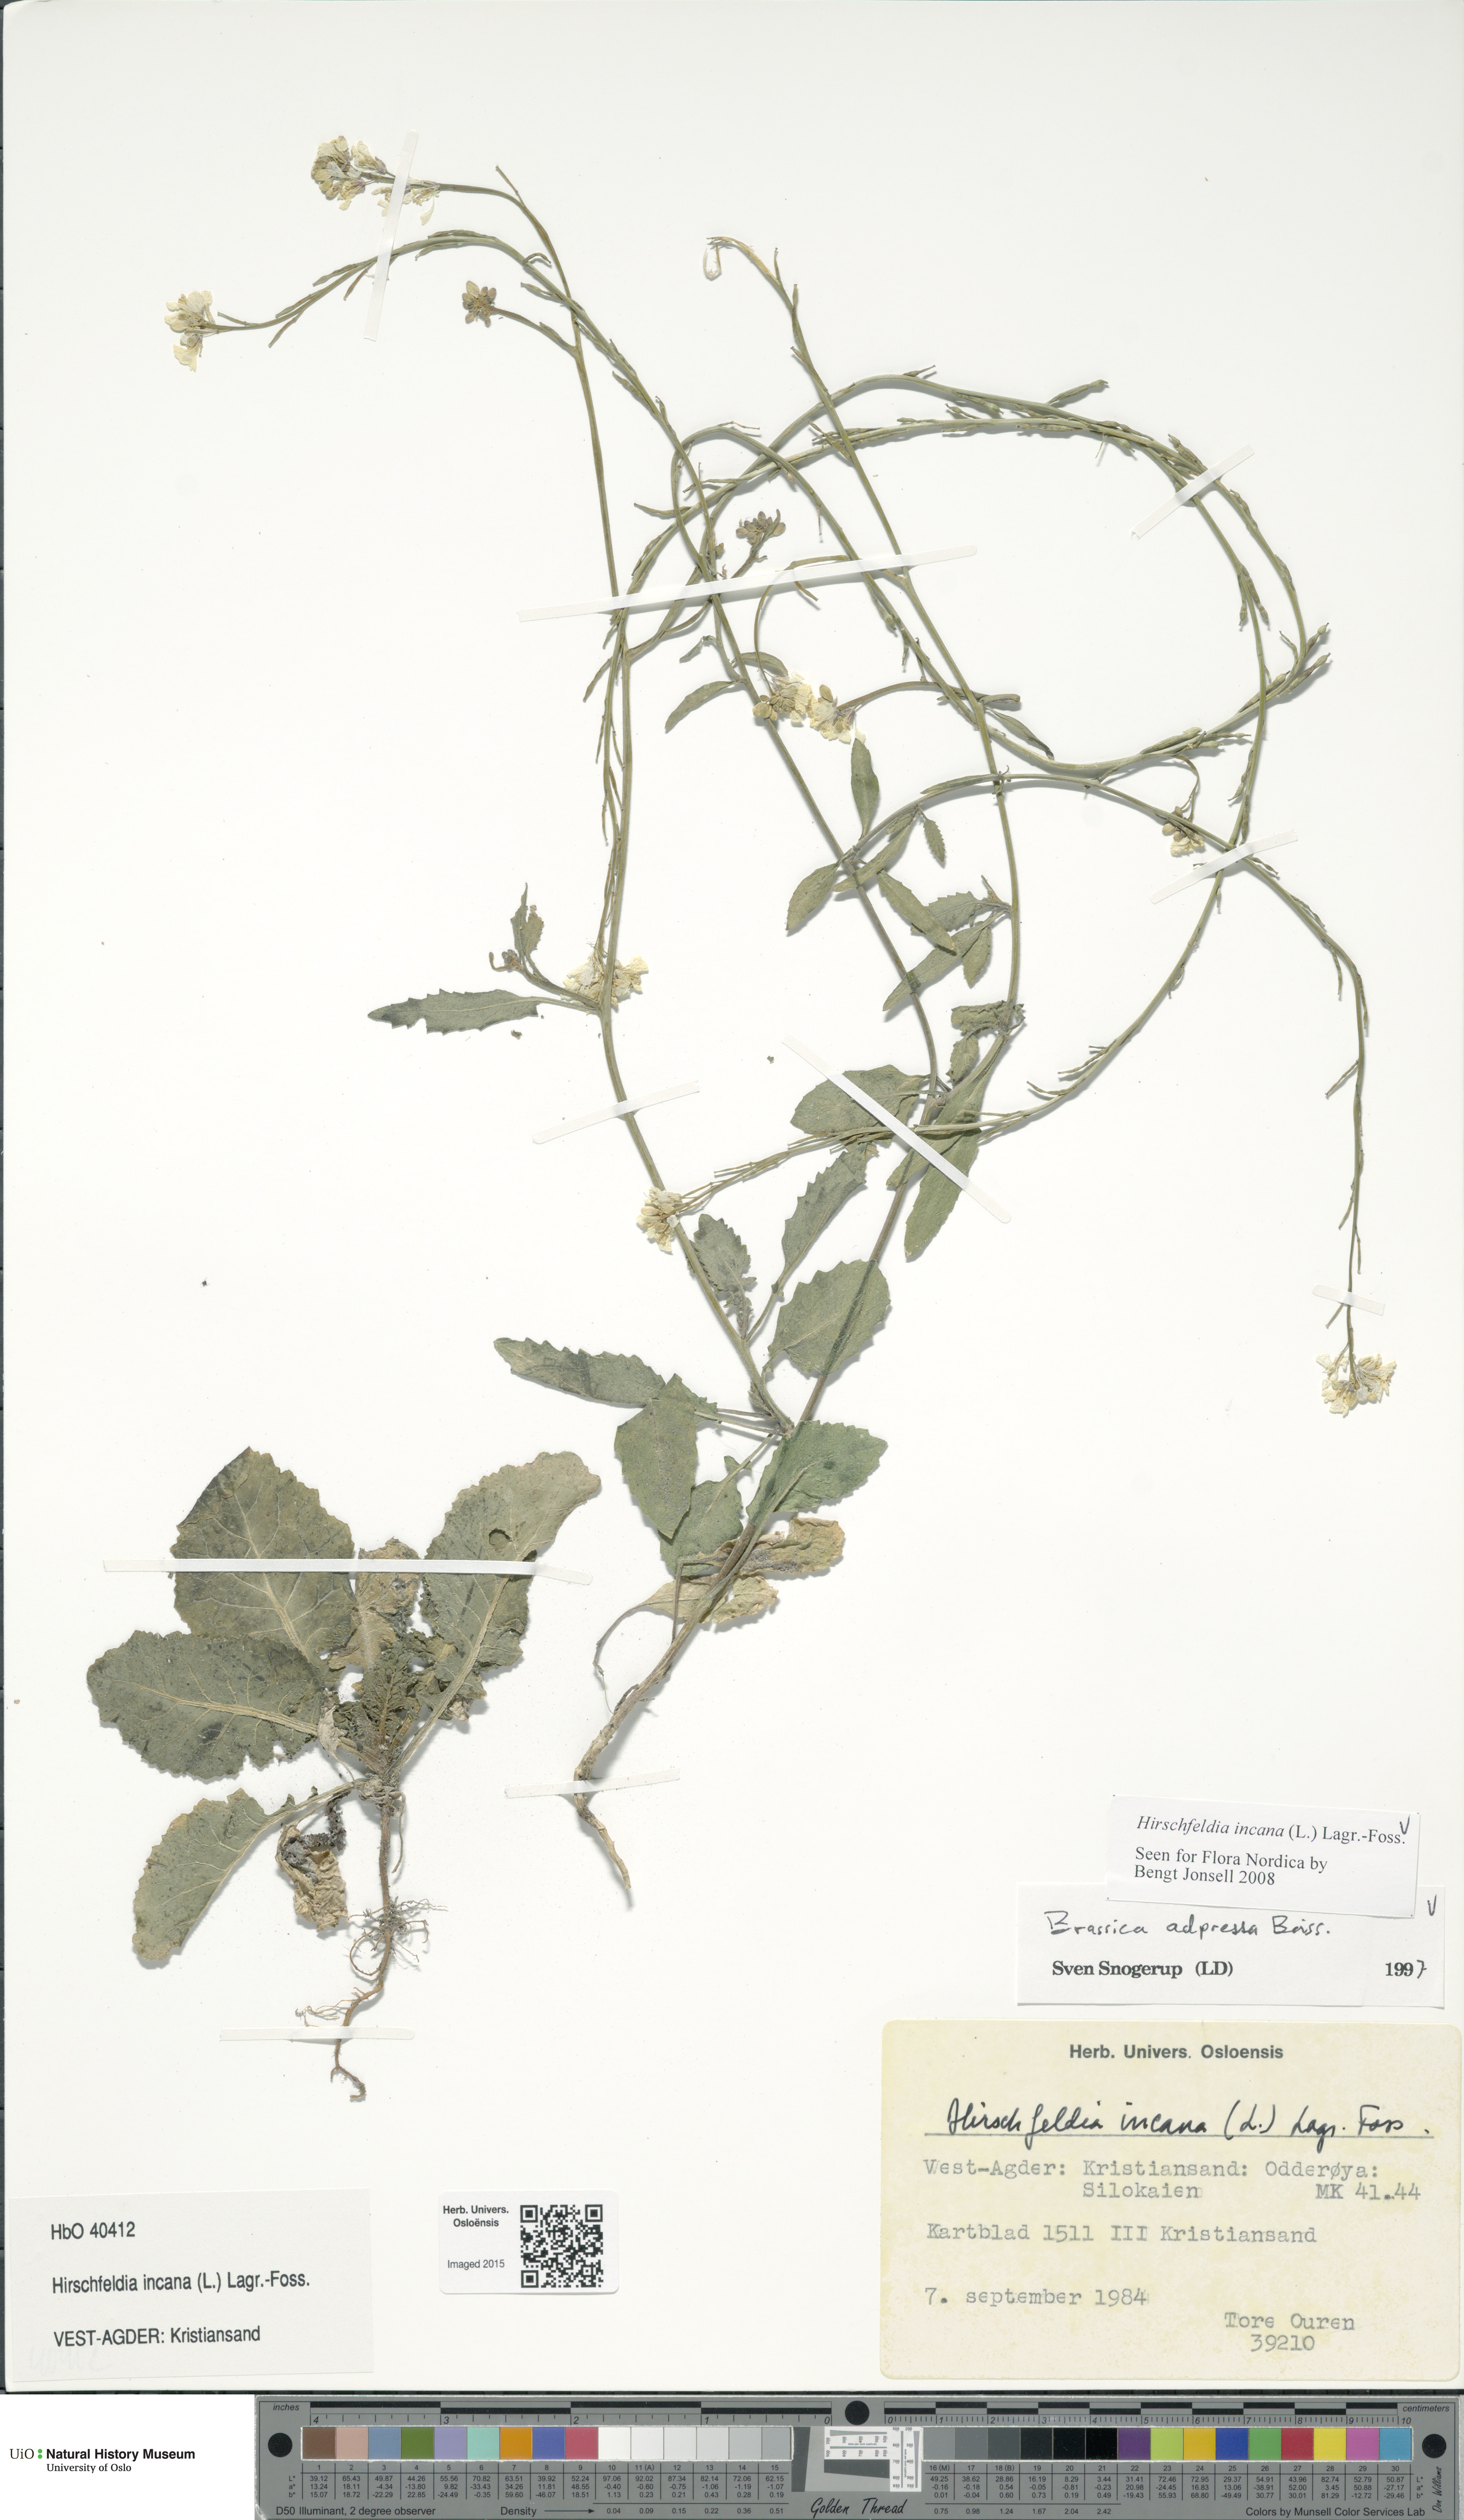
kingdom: Plantae
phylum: Tracheophyta
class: Magnoliopsida
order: Brassicales
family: Brassicaceae
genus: Hirschfeldia
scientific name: Hirschfeldia incana
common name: Hoary mustard
